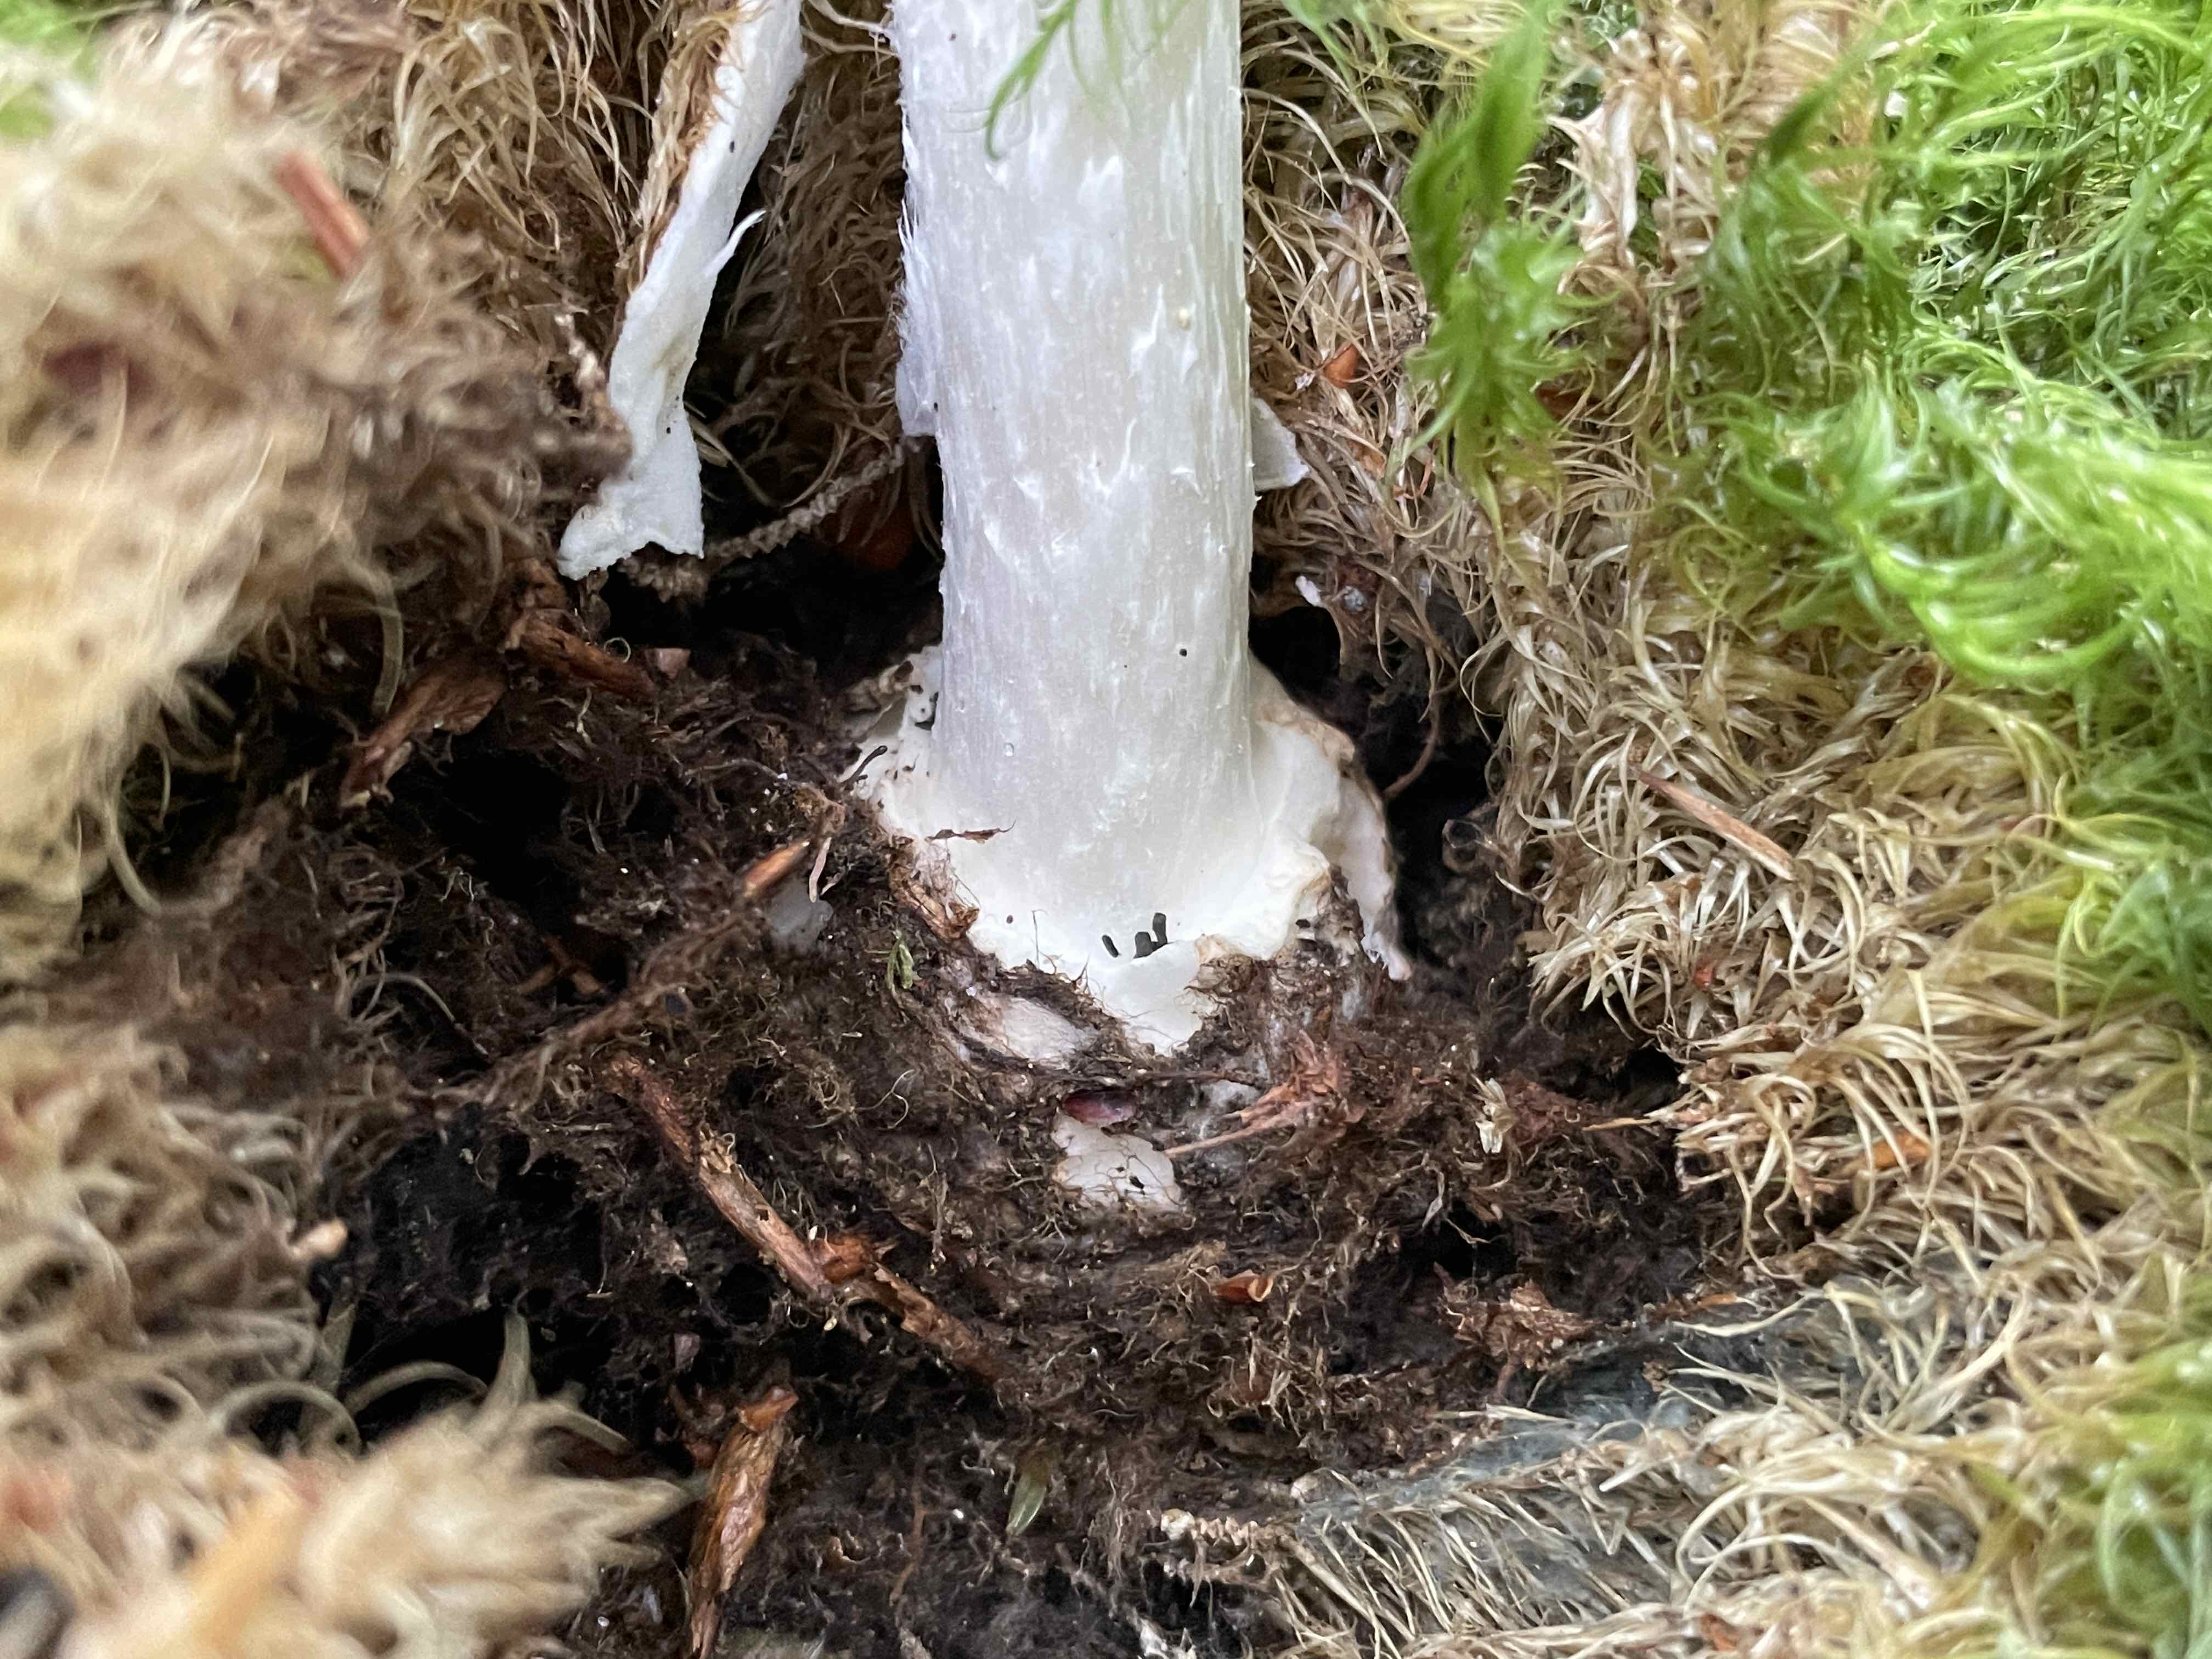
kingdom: Fungi
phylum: Basidiomycota
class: Agaricomycetes
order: Agaricales
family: Amanitaceae
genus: Amanita
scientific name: Amanita citrina
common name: kugleknoldet fluesvamp
